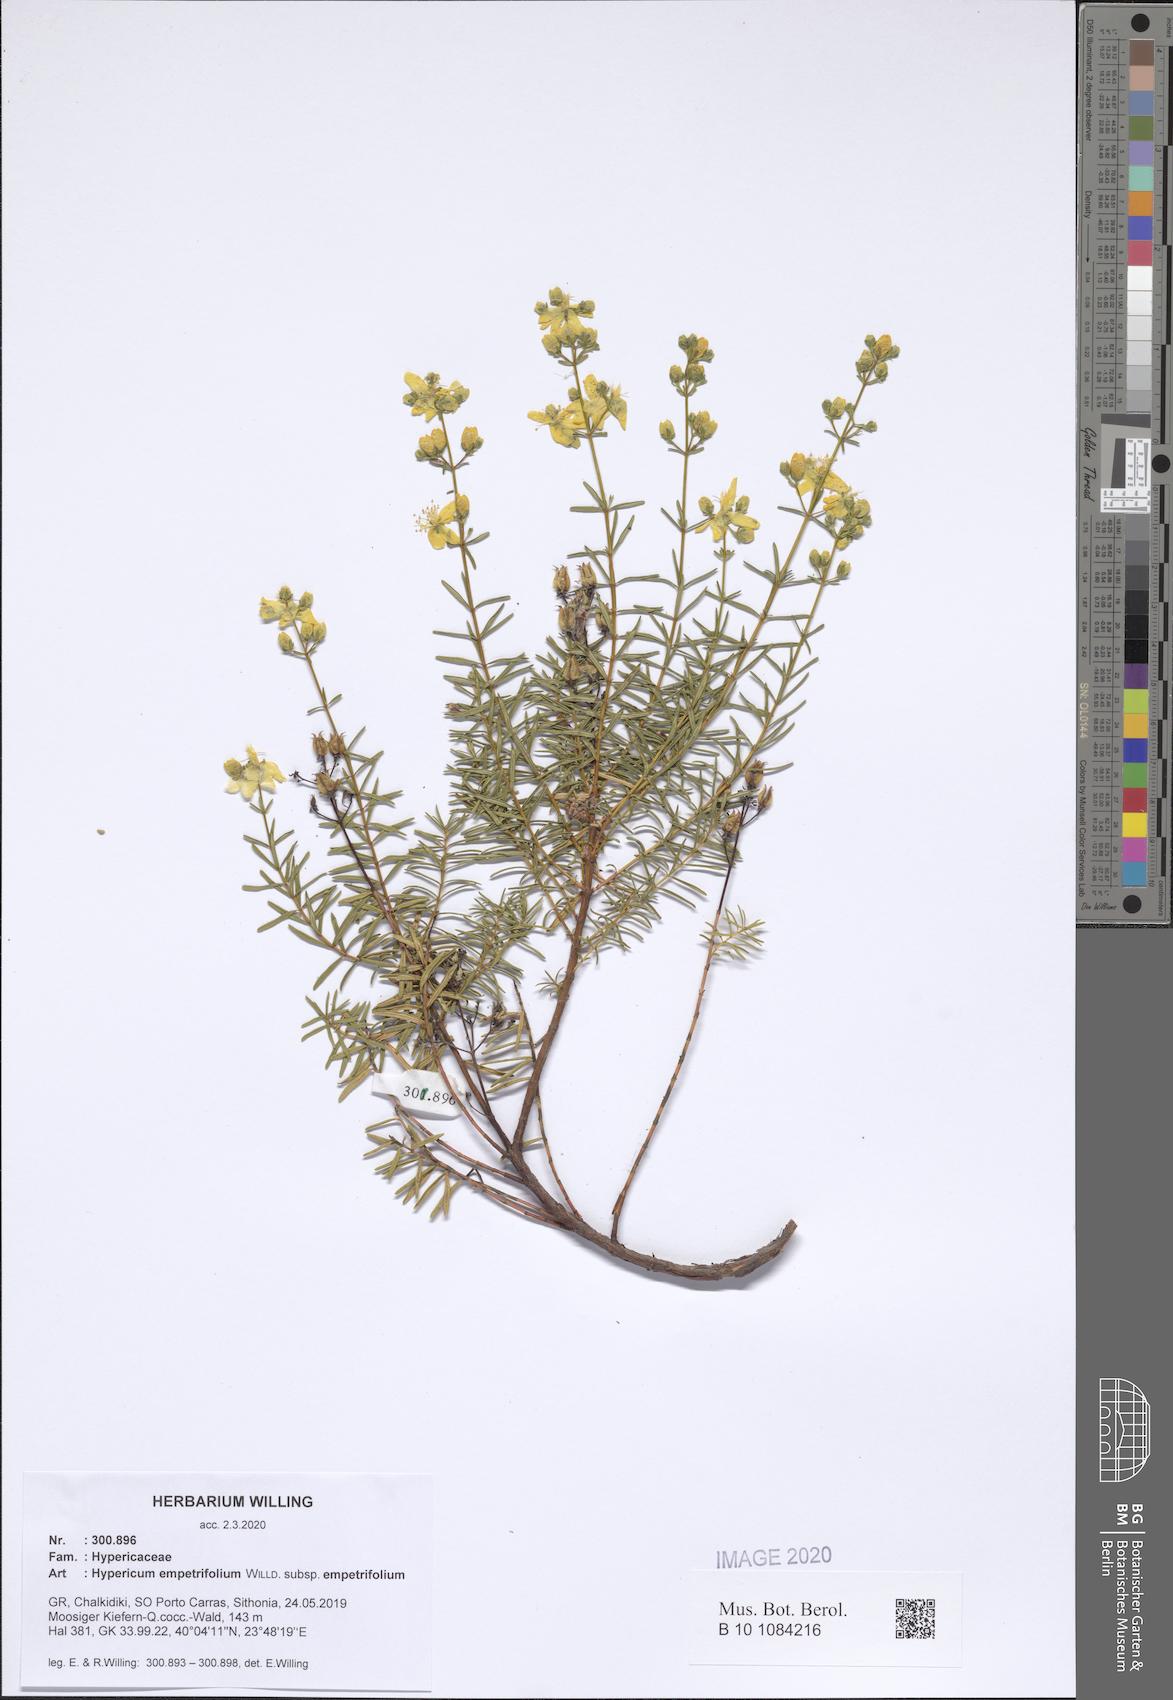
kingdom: Plantae
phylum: Tracheophyta
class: Magnoliopsida
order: Malpighiales
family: Hypericaceae
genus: Hypericum
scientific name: Hypericum empetrifolium
